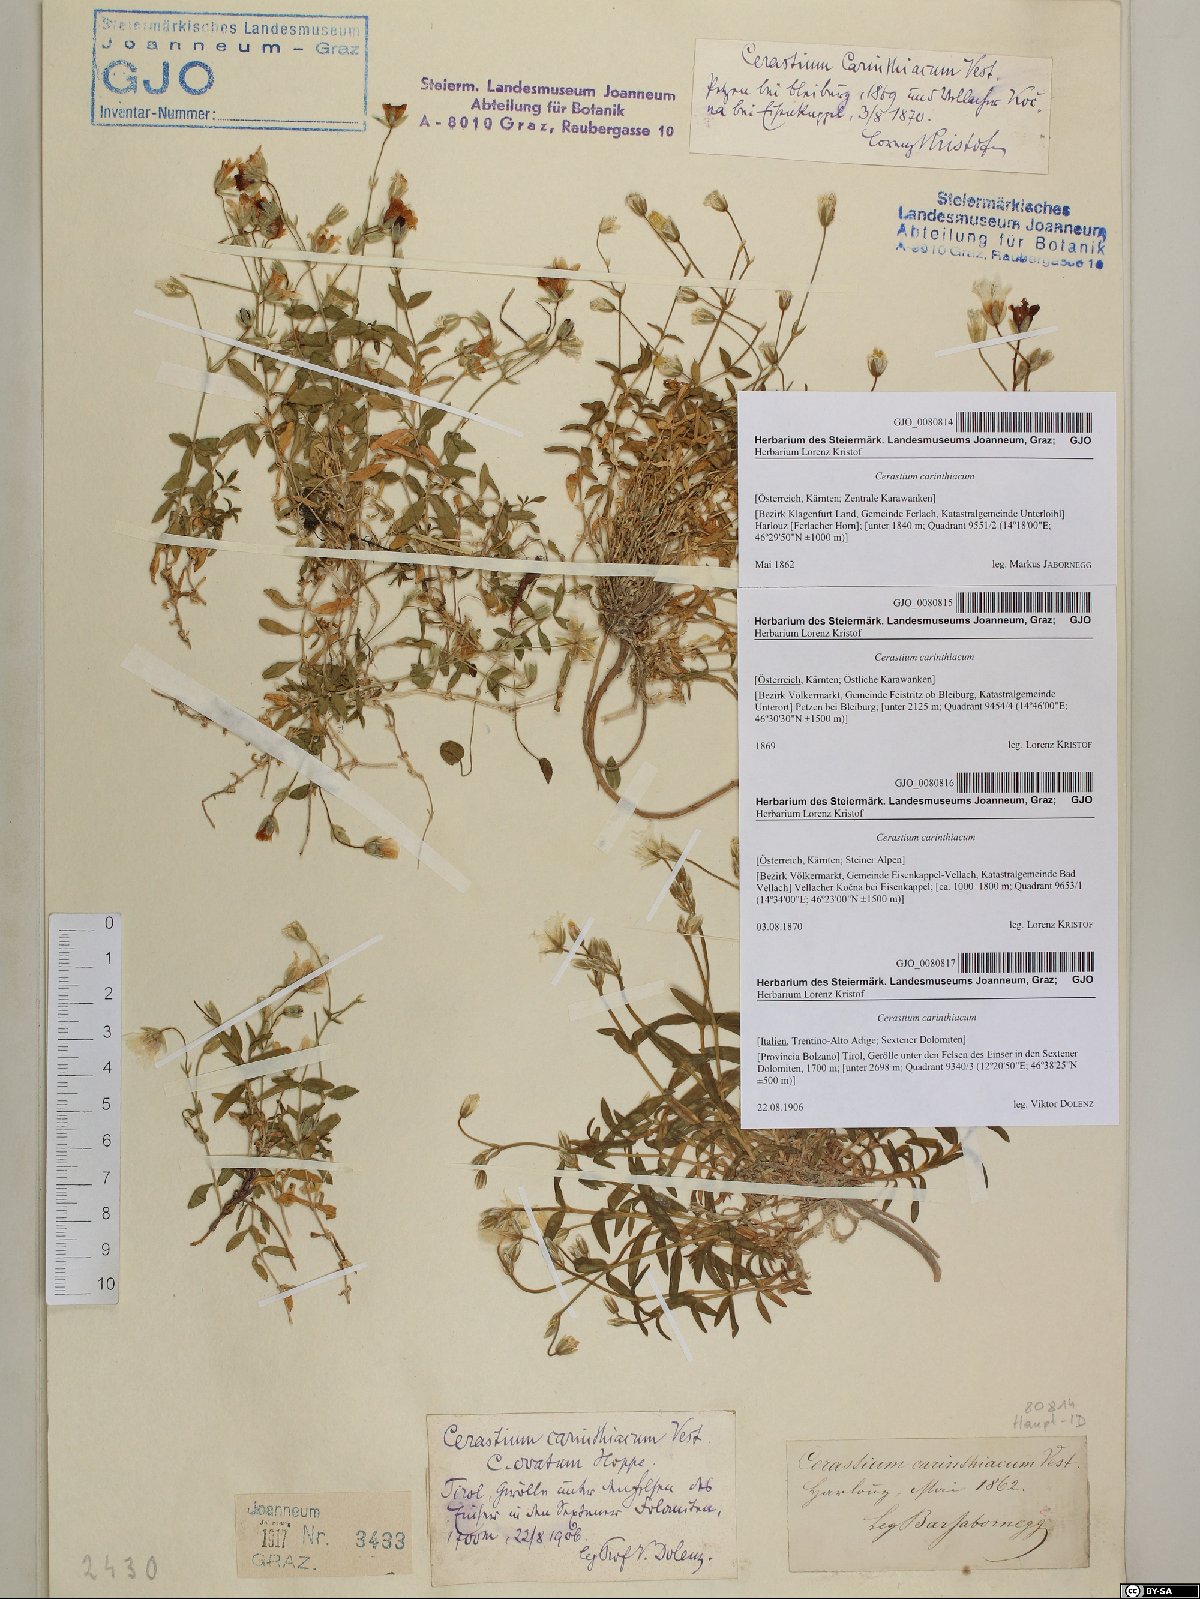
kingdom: Plantae
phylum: Tracheophyta
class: Magnoliopsida
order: Caryophyllales
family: Caryophyllaceae
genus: Cerastium
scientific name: Cerastium carinthiacum
